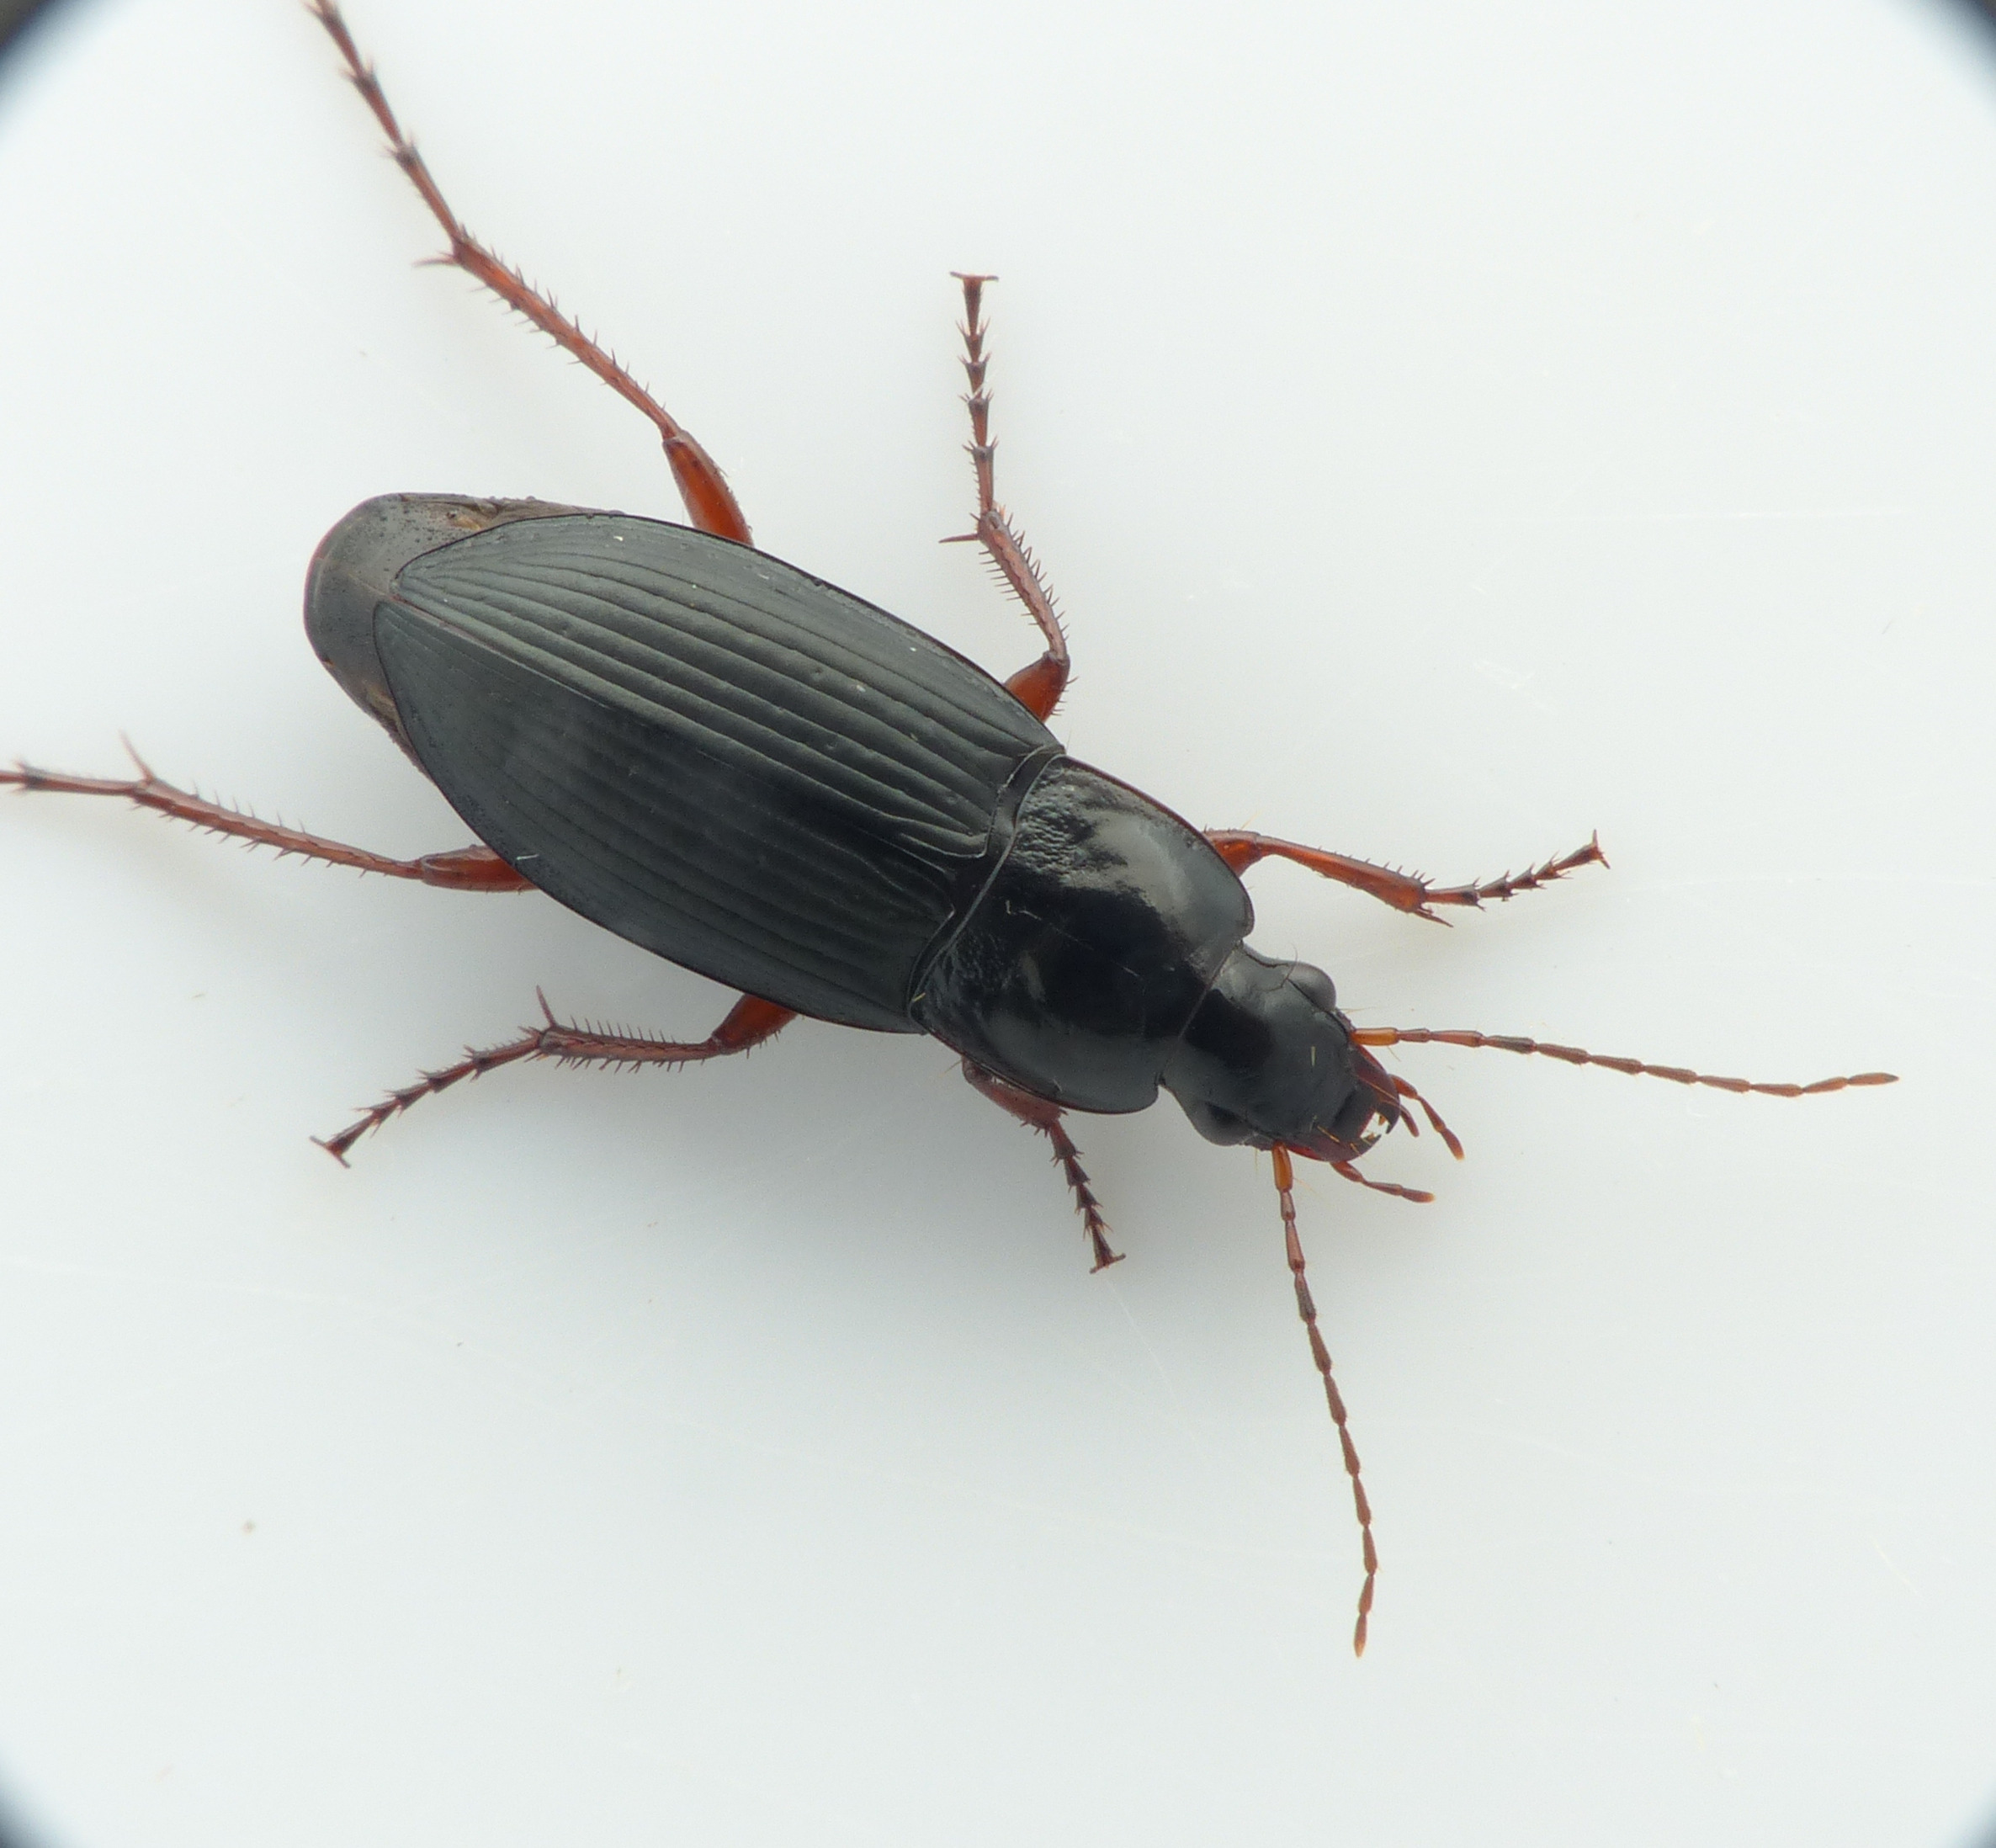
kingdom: Animalia
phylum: Arthropoda
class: Insecta
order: Coleoptera
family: Carabidae
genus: Calathus
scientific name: Calathus fuscipes
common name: Stor torpedoløber
